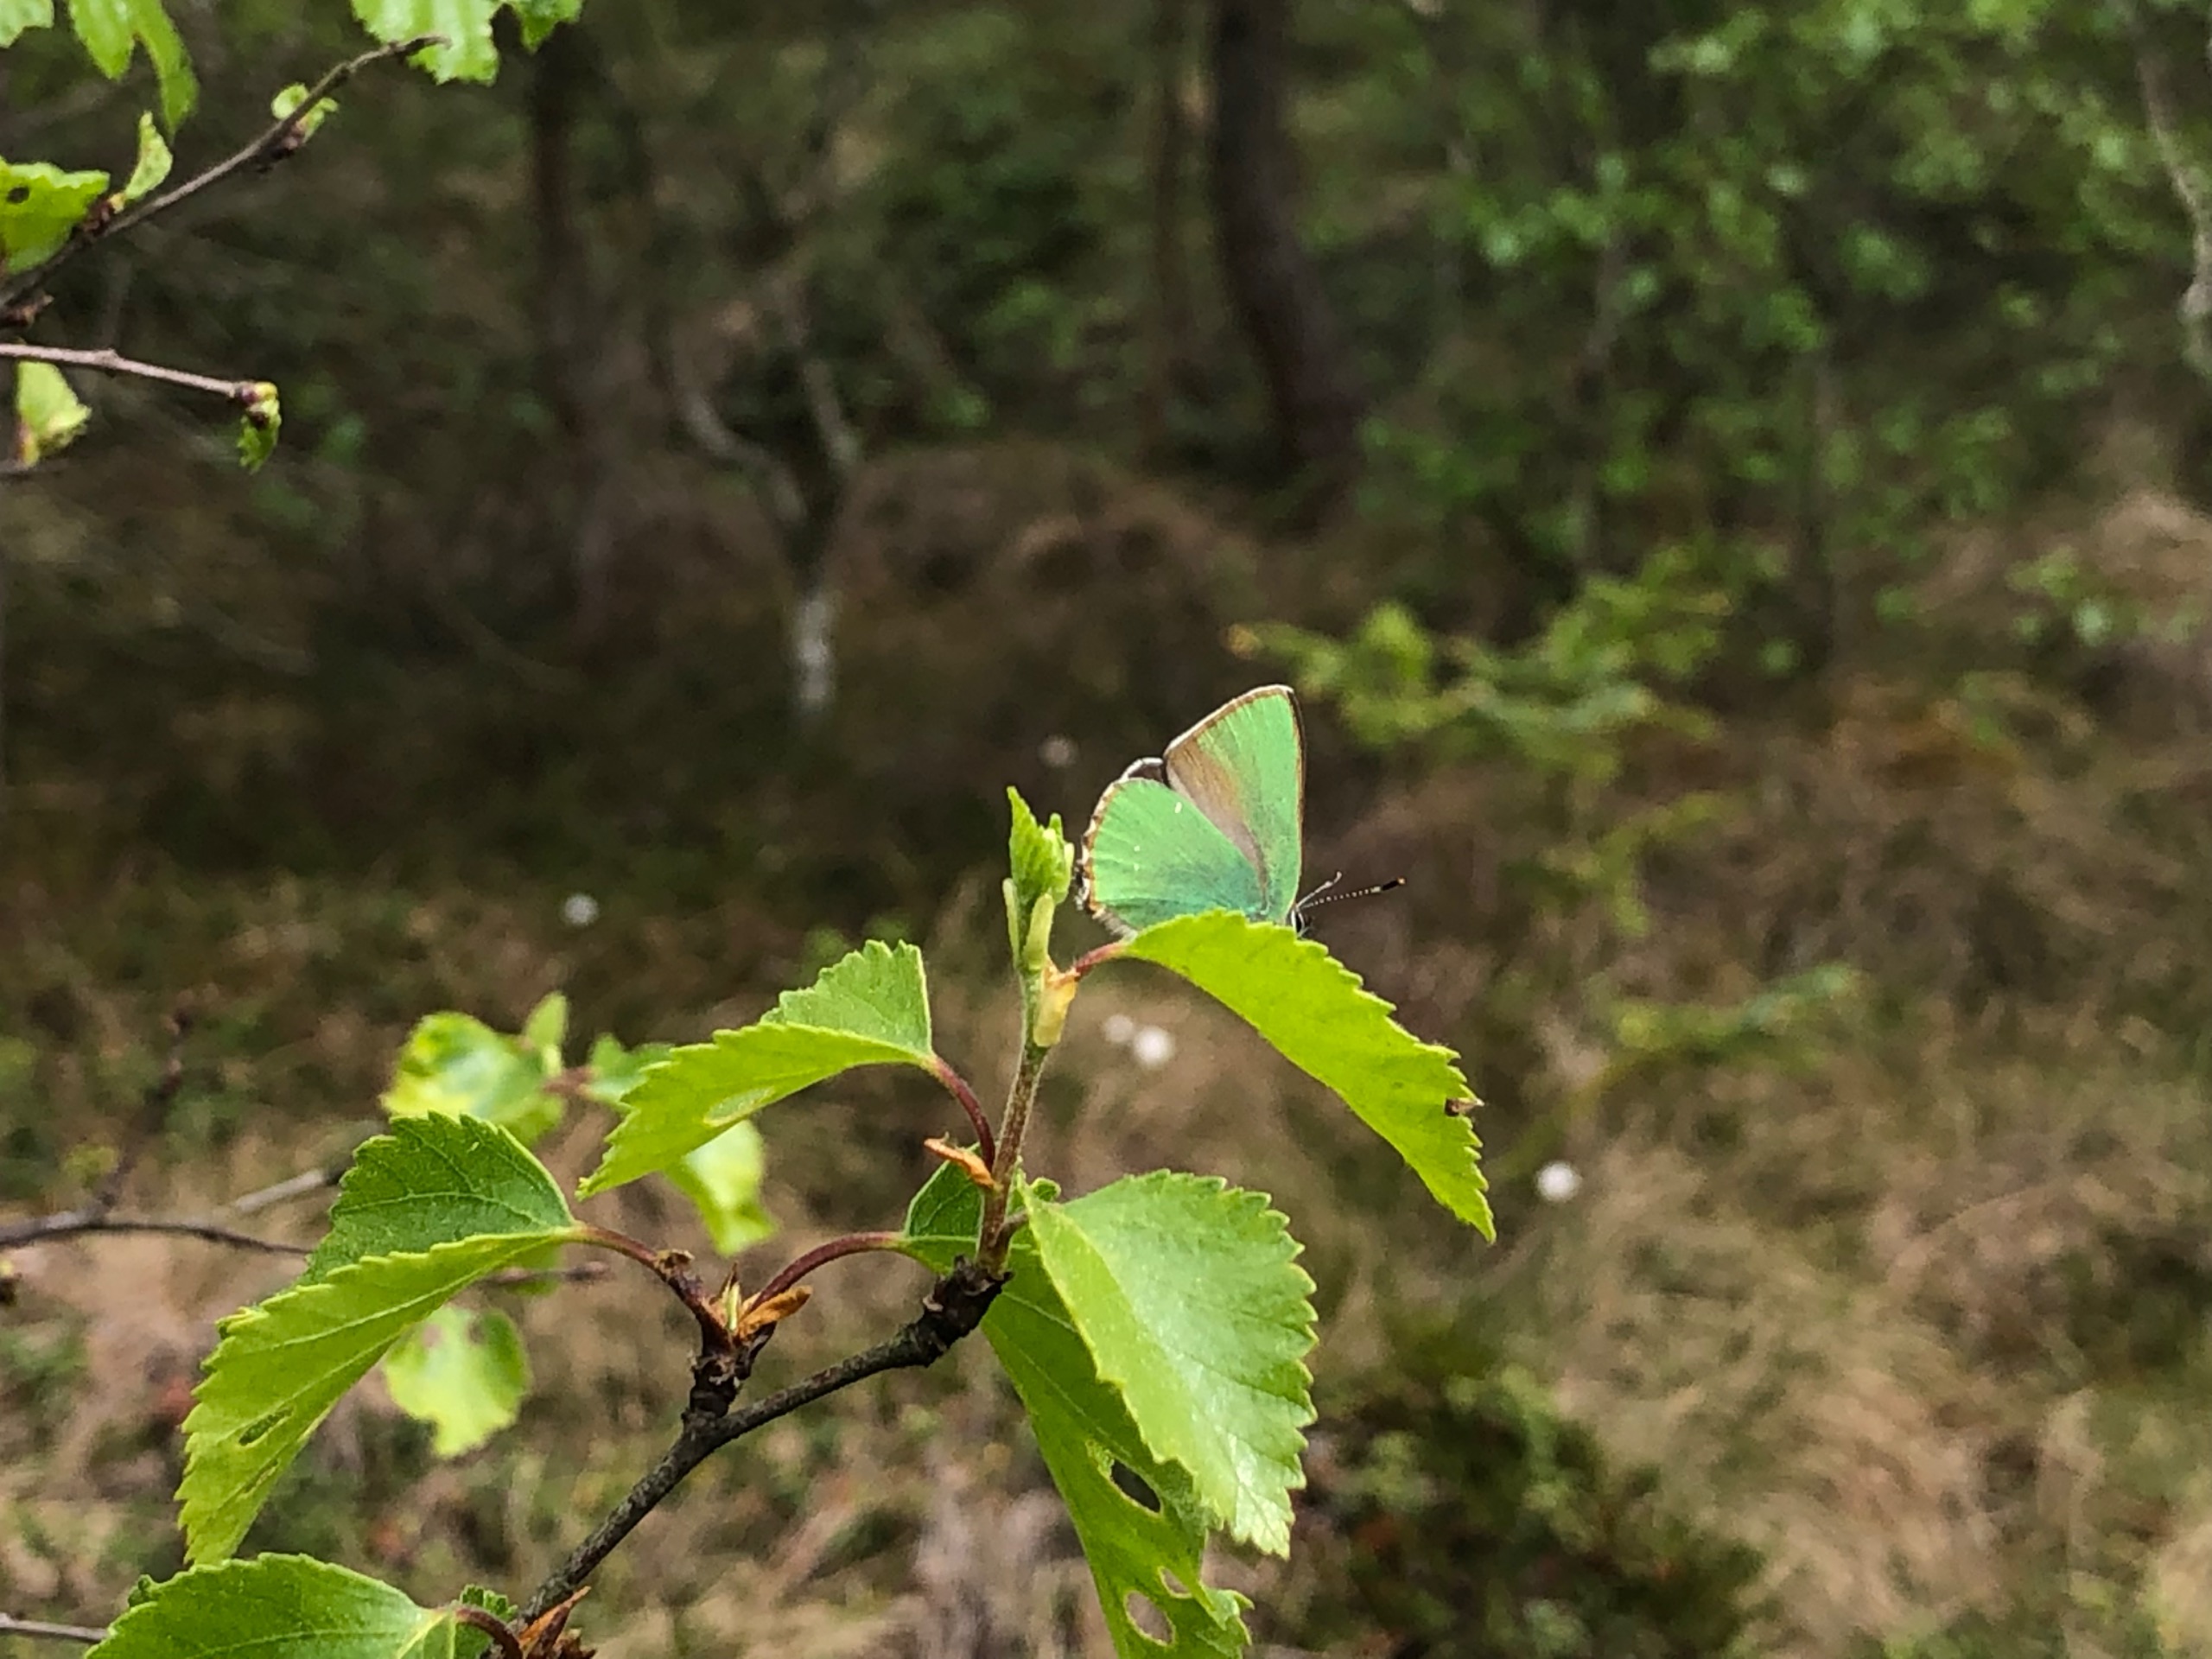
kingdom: Animalia
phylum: Arthropoda
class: Insecta
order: Lepidoptera
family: Lycaenidae
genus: Callophrys
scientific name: Callophrys rubi
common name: Grøn busksommerfugl
